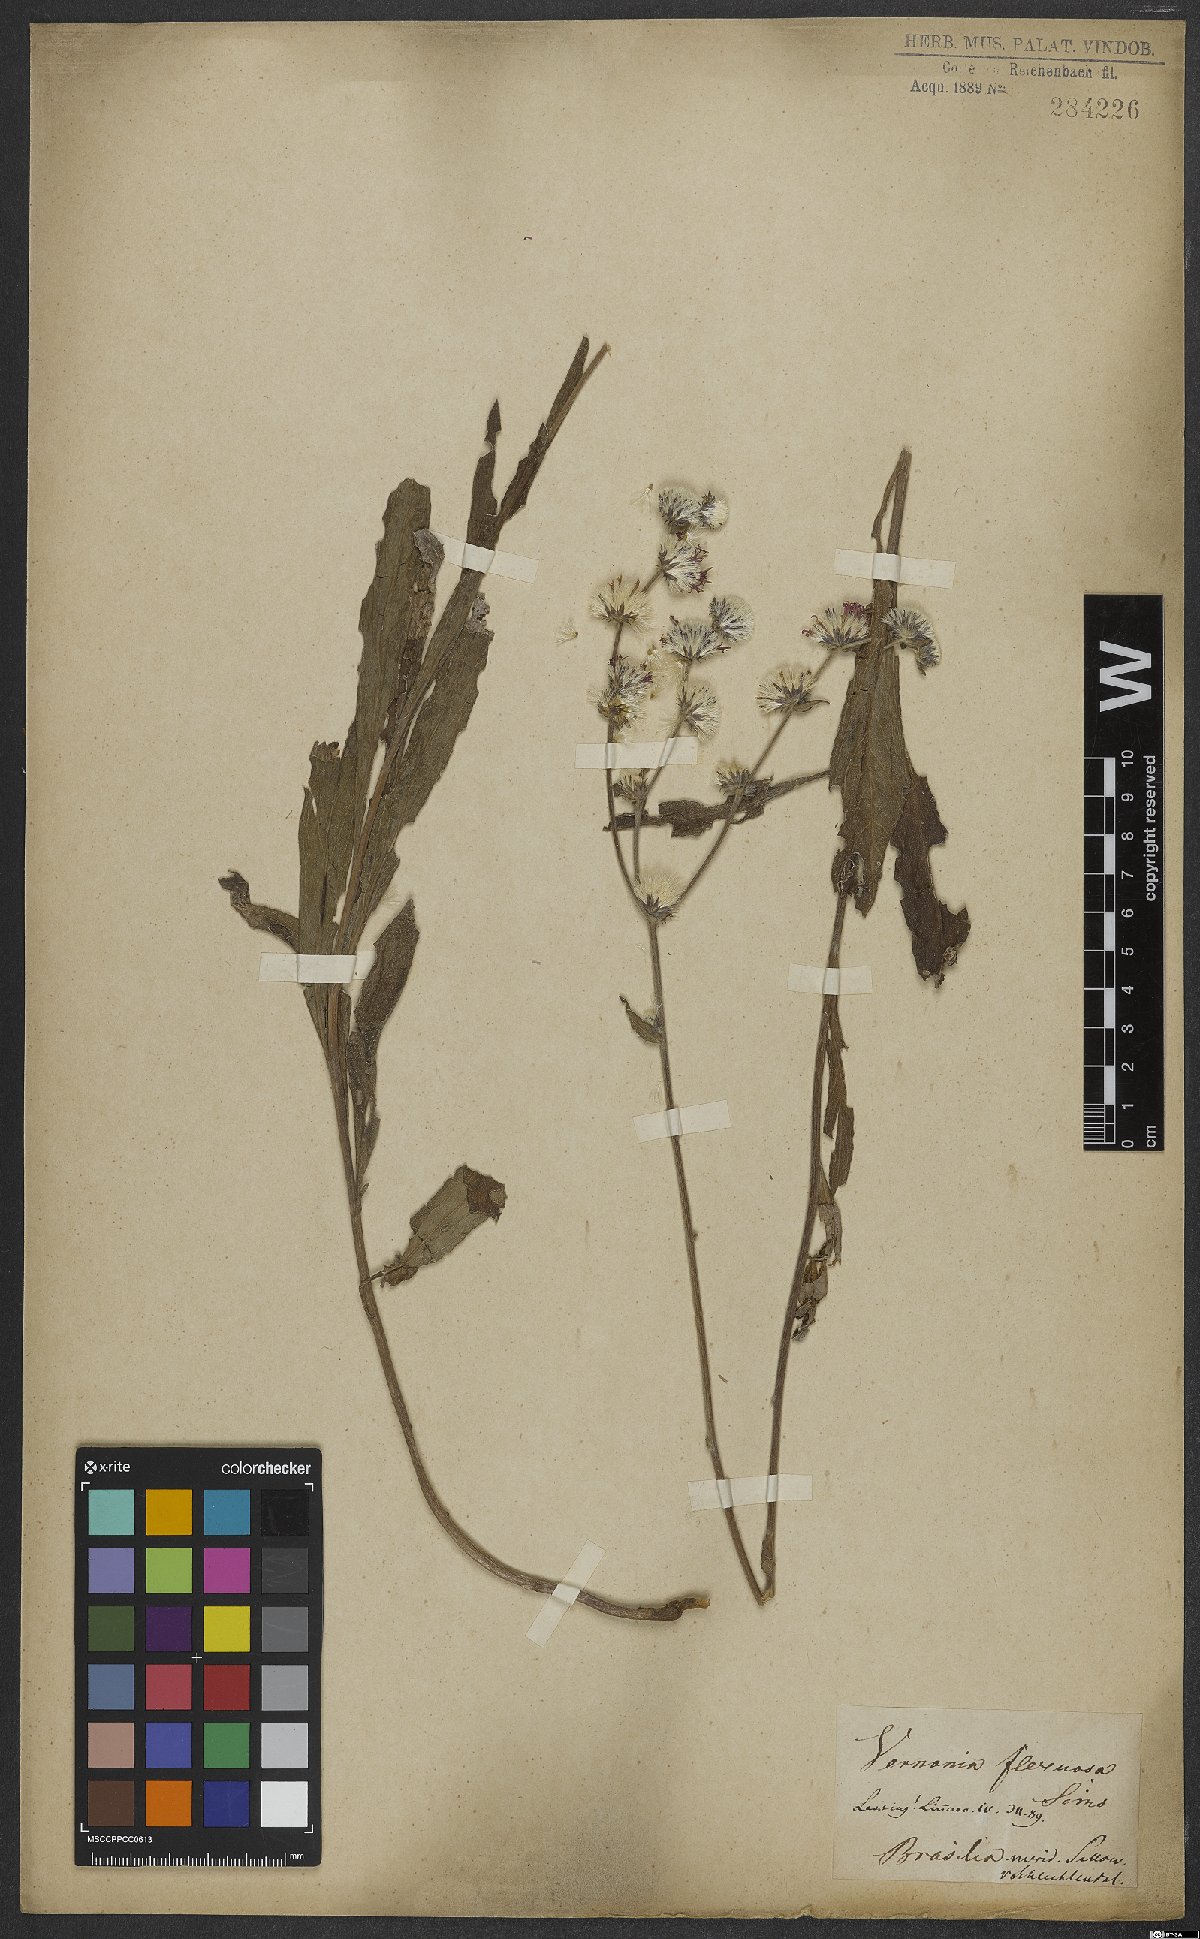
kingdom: Plantae
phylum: Tracheophyta
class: Magnoliopsida
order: Asterales
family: Asteraceae
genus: Chrysolaena
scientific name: Chrysolaena flexuosa
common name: Zig-zag vernonia
